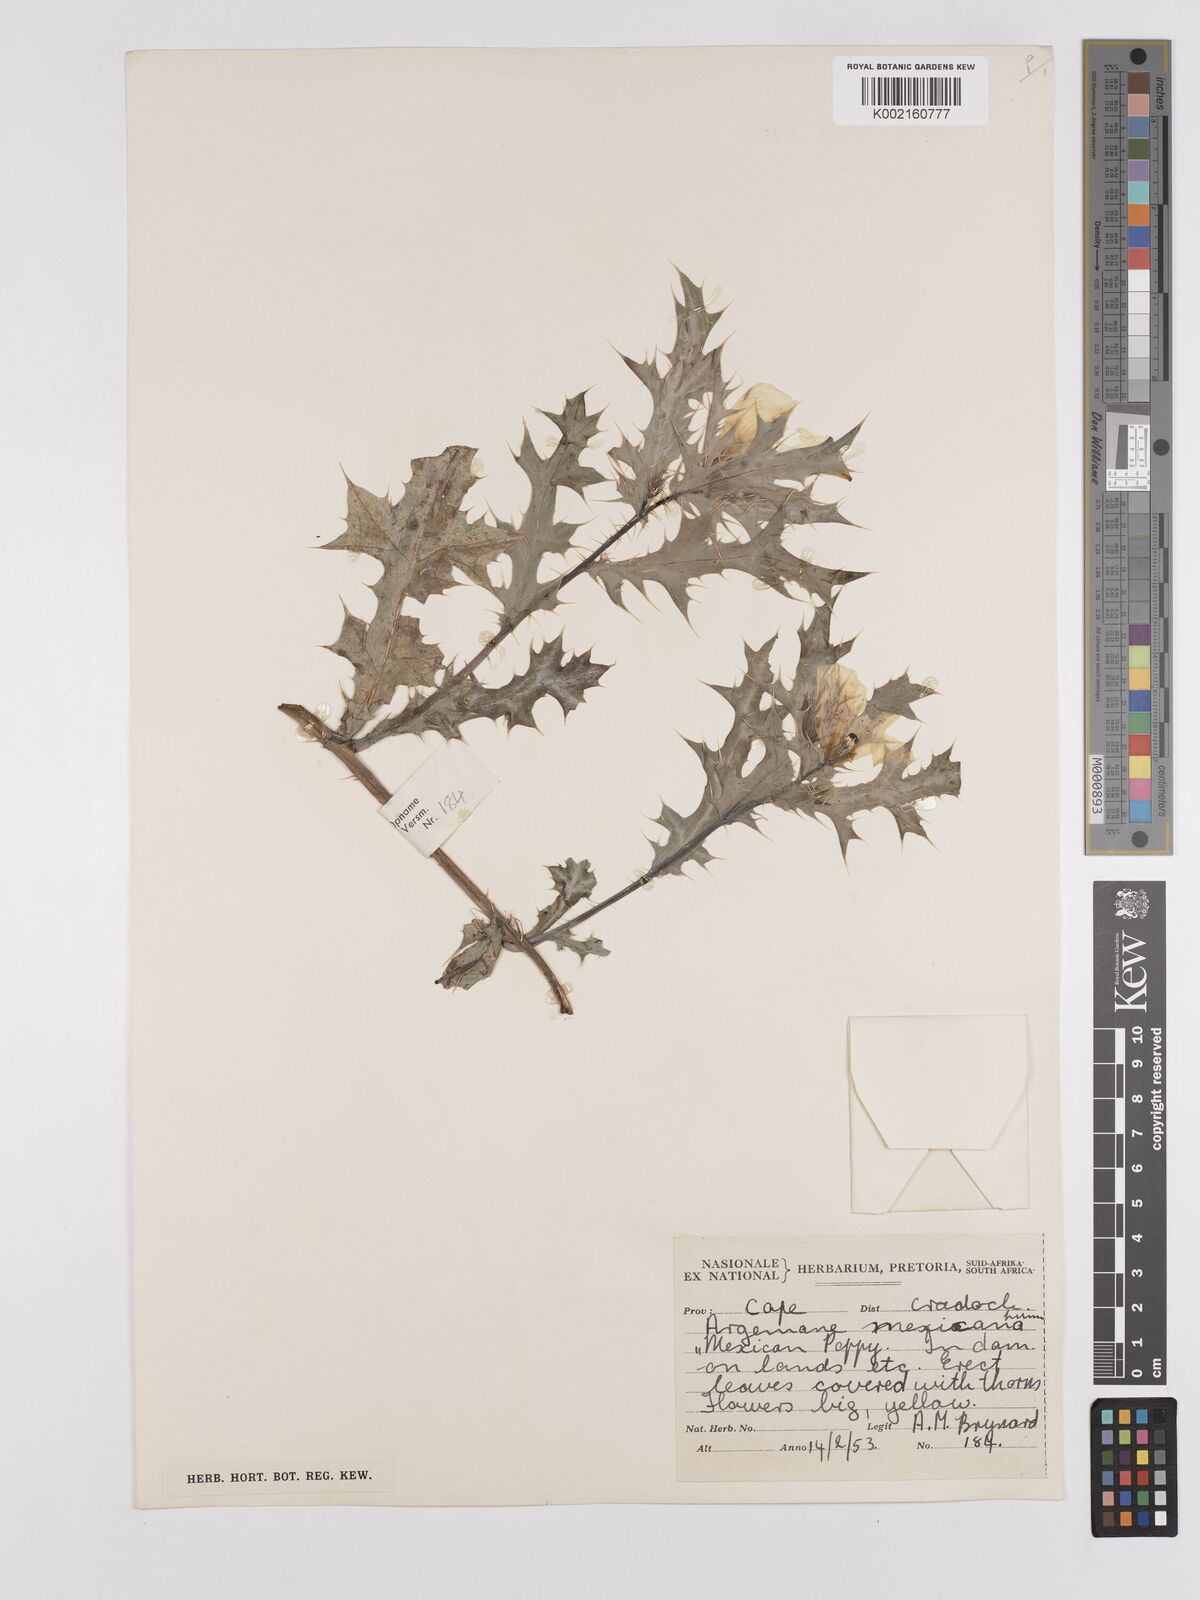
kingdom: Plantae
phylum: Tracheophyta
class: Magnoliopsida
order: Ranunculales
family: Papaveraceae
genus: Argemone
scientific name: Argemone mexicana
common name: Mexican poppy
